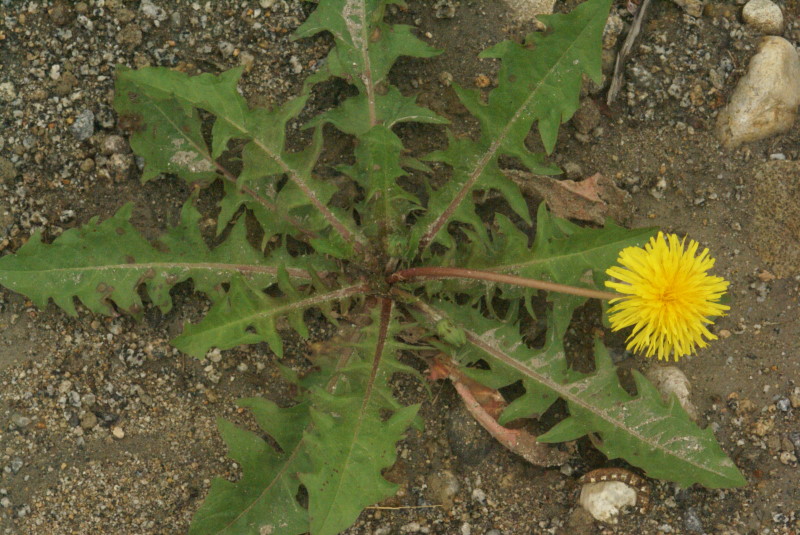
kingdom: Plantae
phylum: Tracheophyta
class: Magnoliopsida
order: Asterales
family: Asteraceae
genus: Taraxacum
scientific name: Taraxacum officinale
